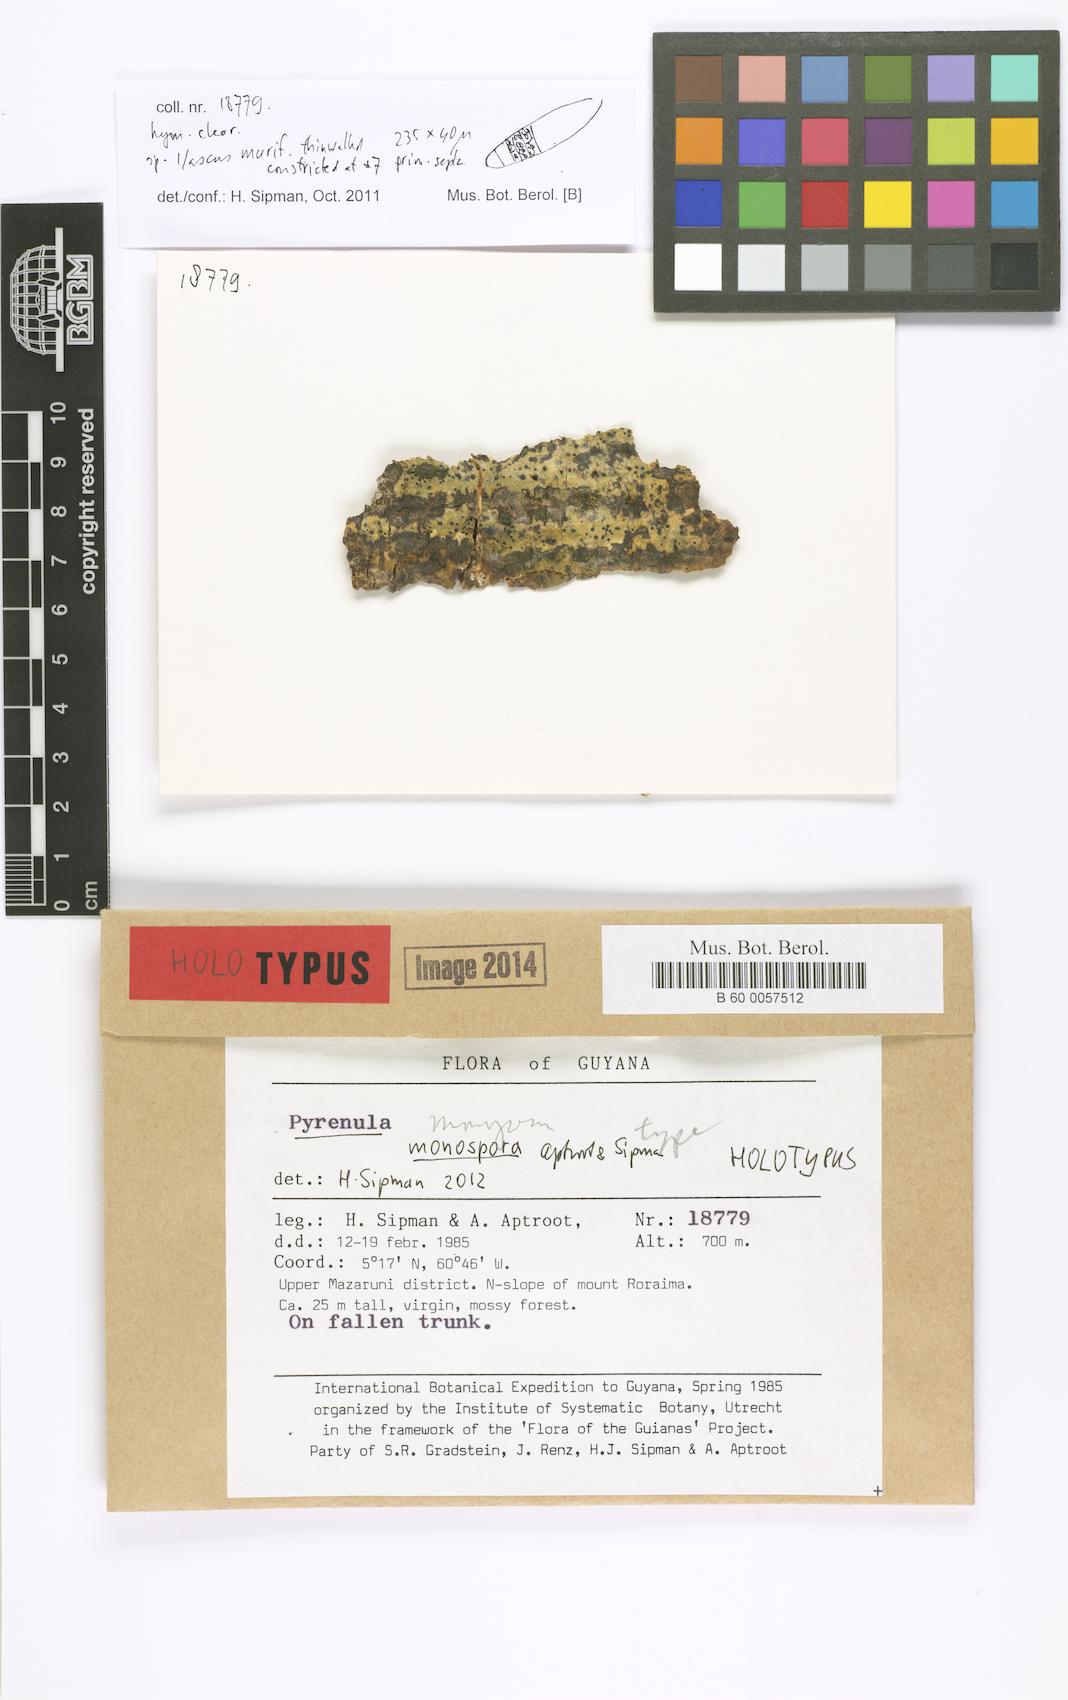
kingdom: Fungi
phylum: Ascomycota
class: Eurotiomycetes
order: Pyrenulales
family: Pyrenulaceae
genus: Pyrenula
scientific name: Pyrenula monospora
